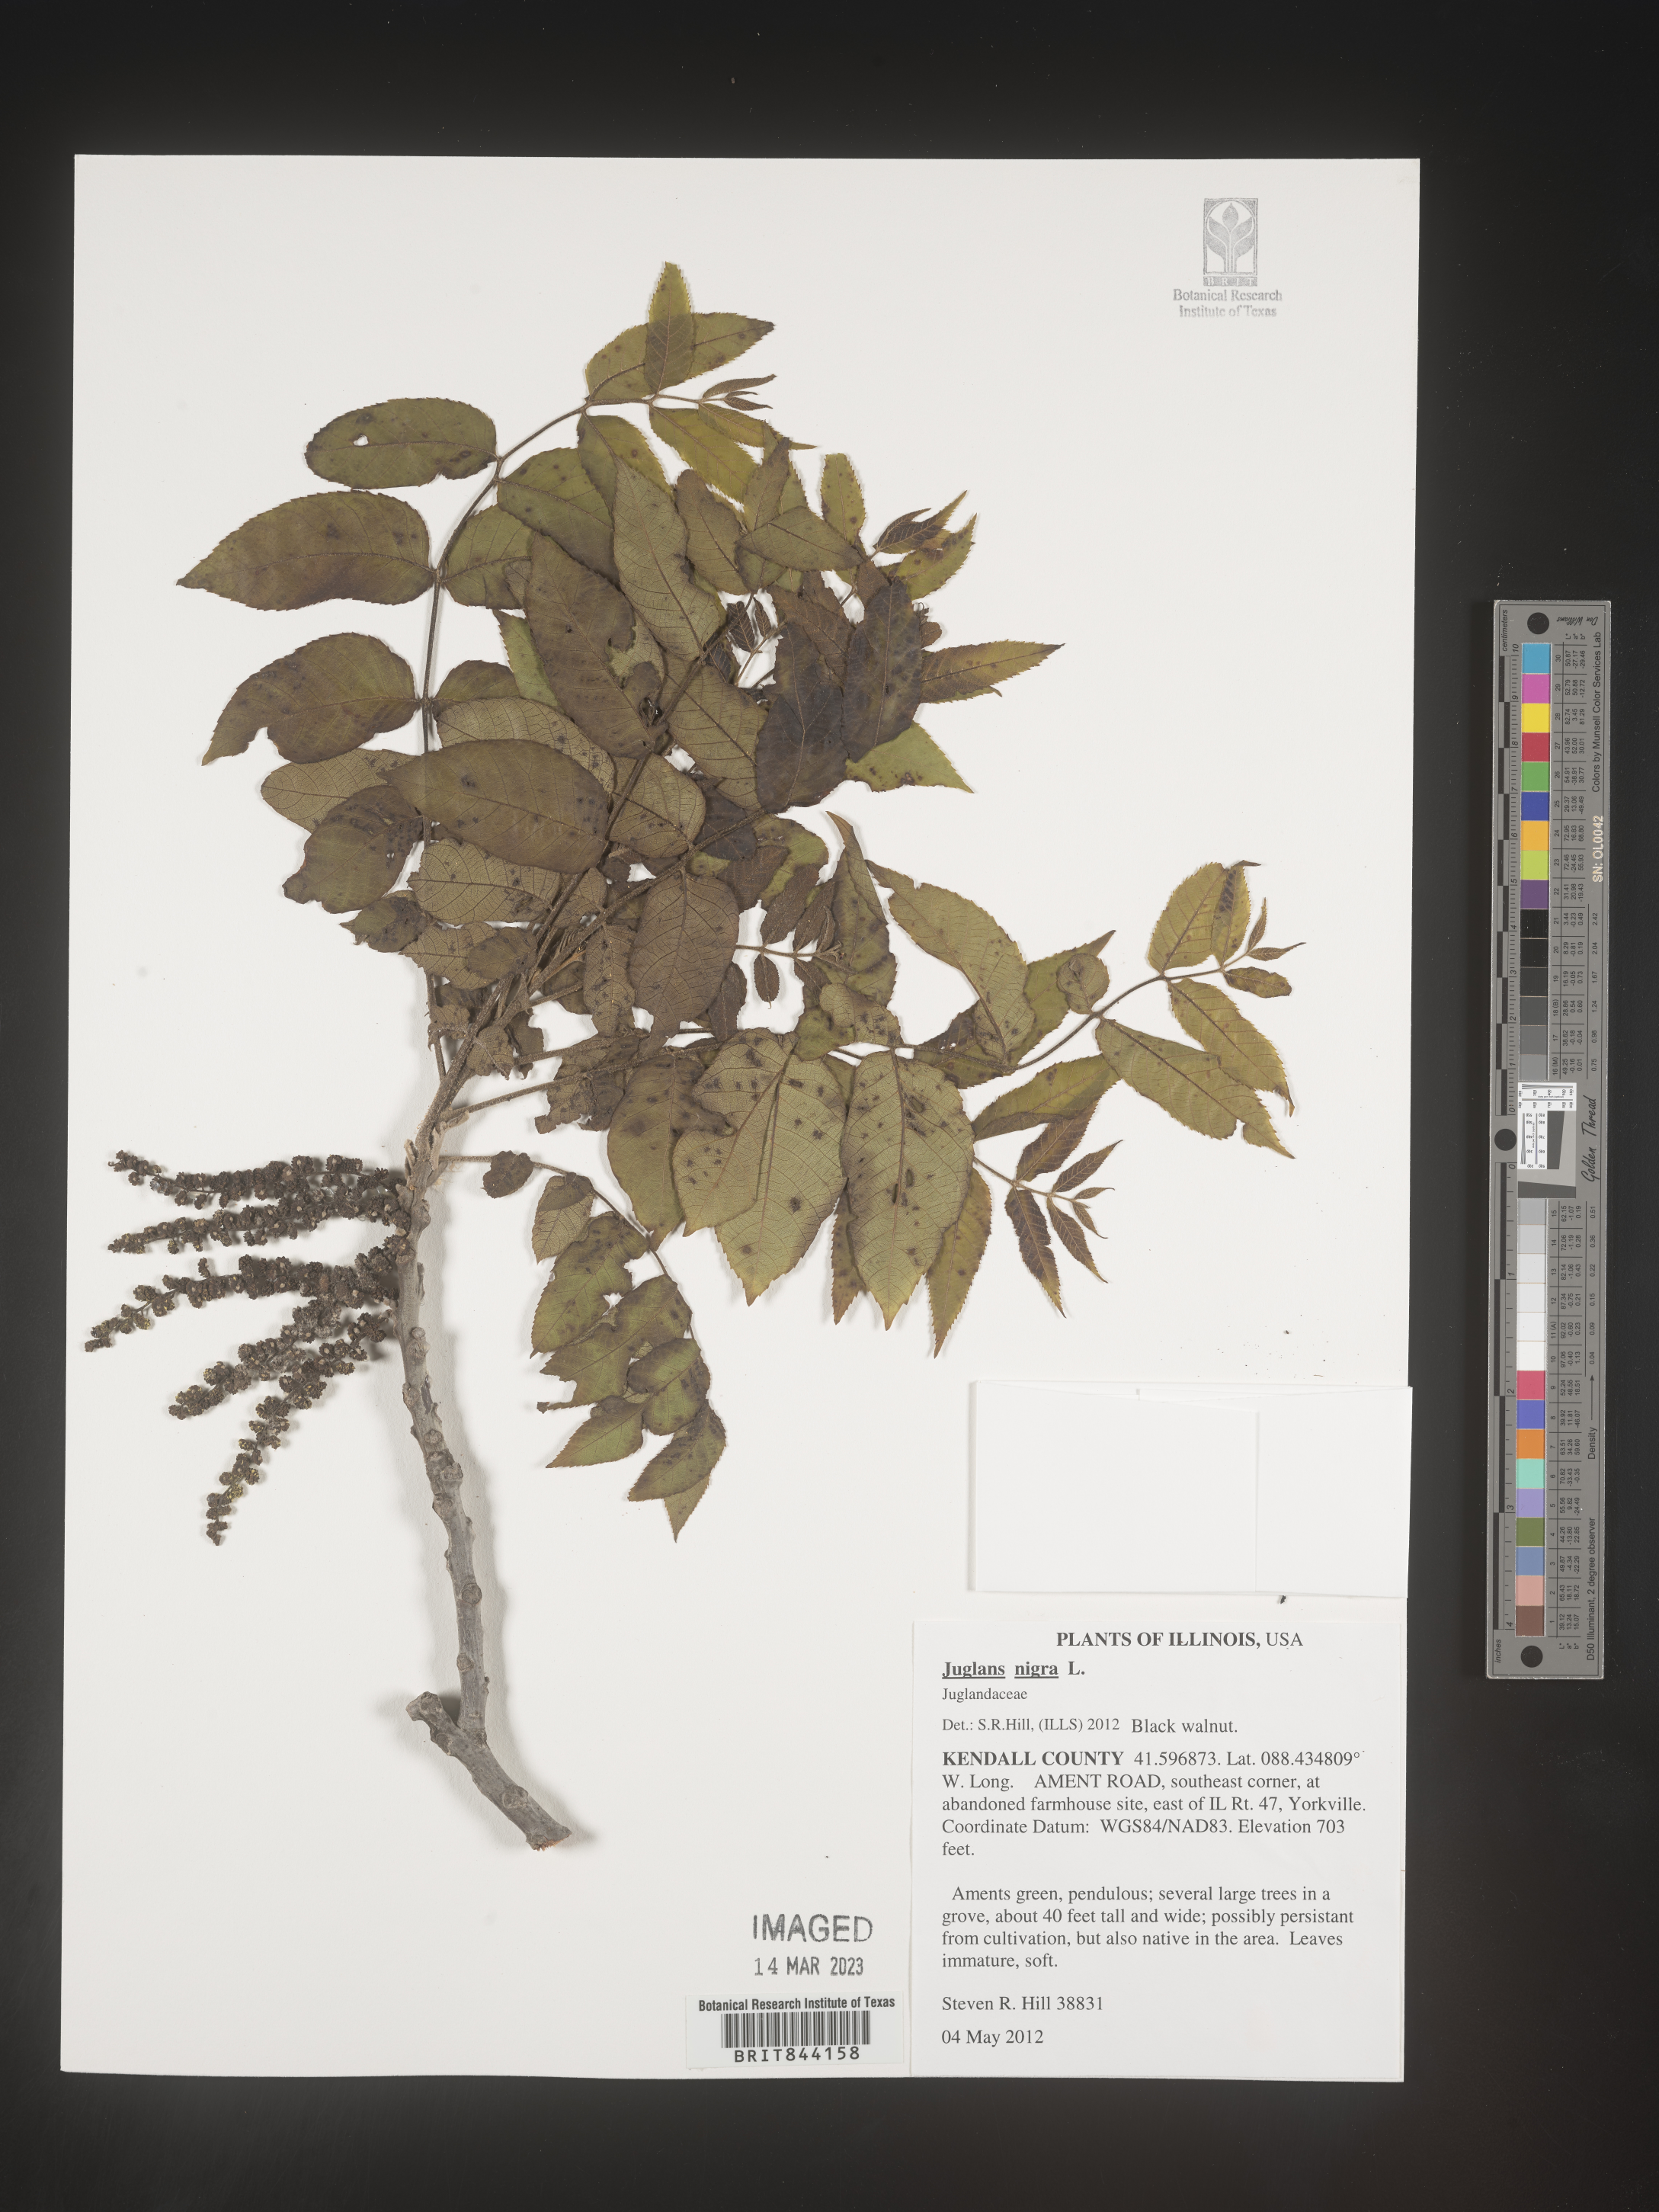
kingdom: Plantae
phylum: Tracheophyta
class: Magnoliopsida
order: Fagales
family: Juglandaceae
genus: Juglans
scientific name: Juglans nigra
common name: Black walnut
